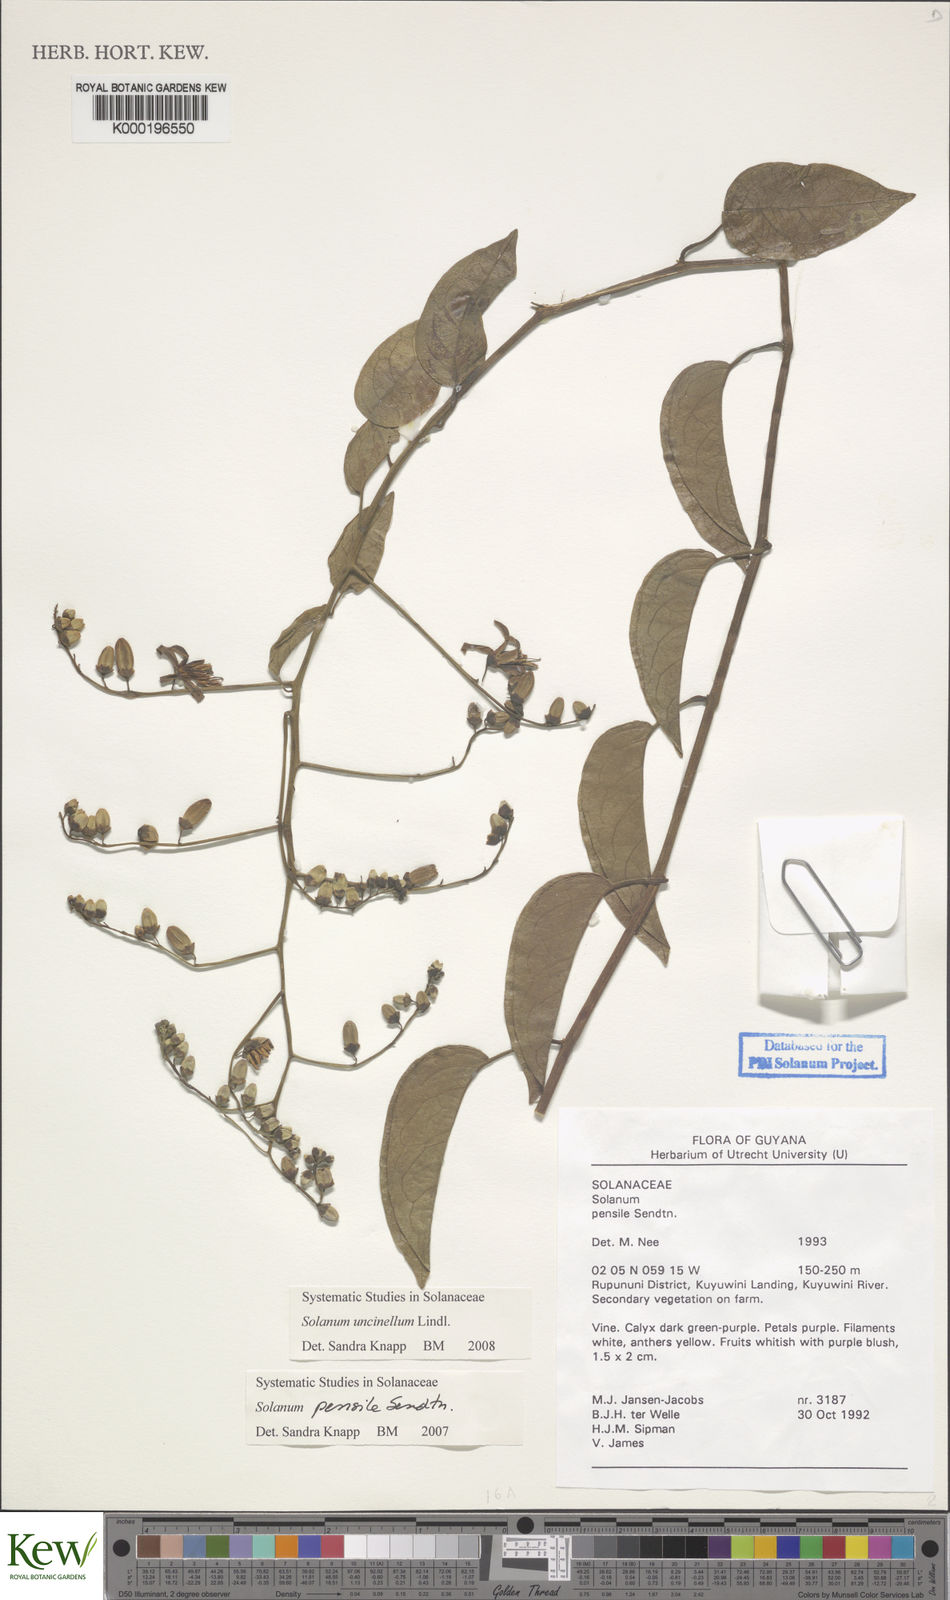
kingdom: Plantae
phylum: Tracheophyta
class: Magnoliopsida
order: Solanales
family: Solanaceae
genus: Solanum
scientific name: Solanum uncinellum
